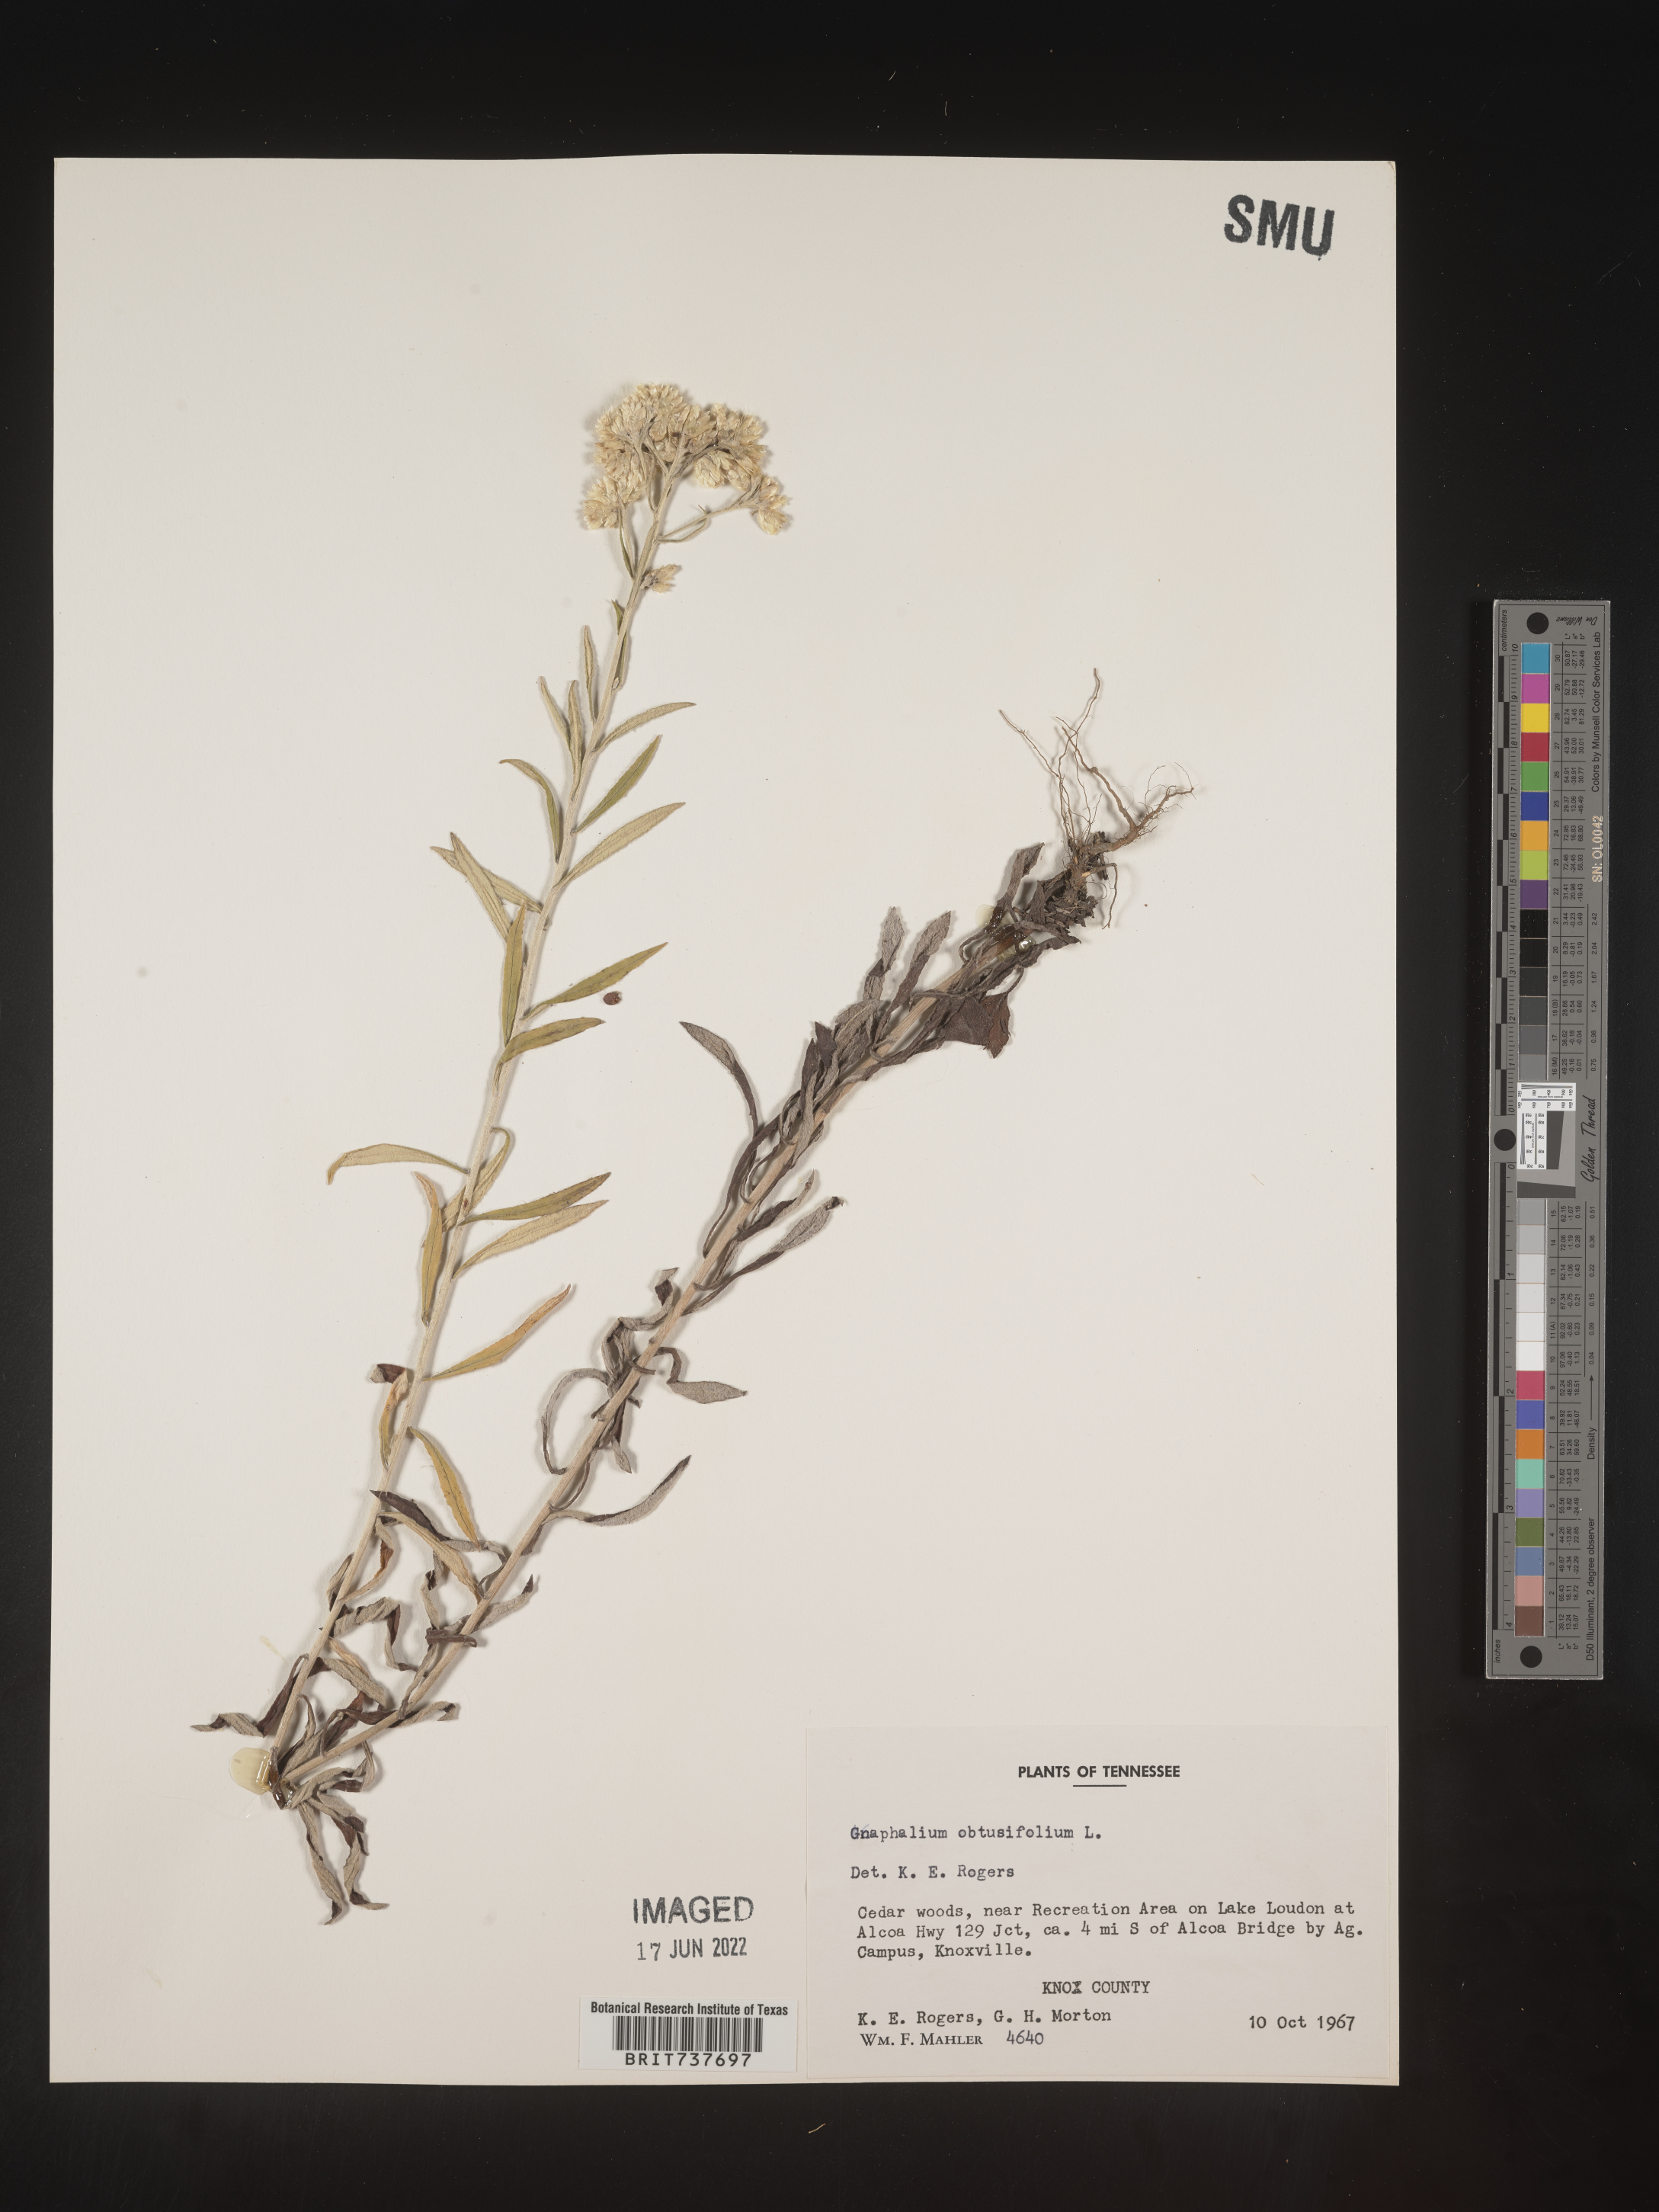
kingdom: Plantae
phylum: Tracheophyta
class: Magnoliopsida
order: Asterales
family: Asteraceae
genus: Pseudognaphalium
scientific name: Pseudognaphalium obtusifolium
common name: Eastern rabbit-tobacco
